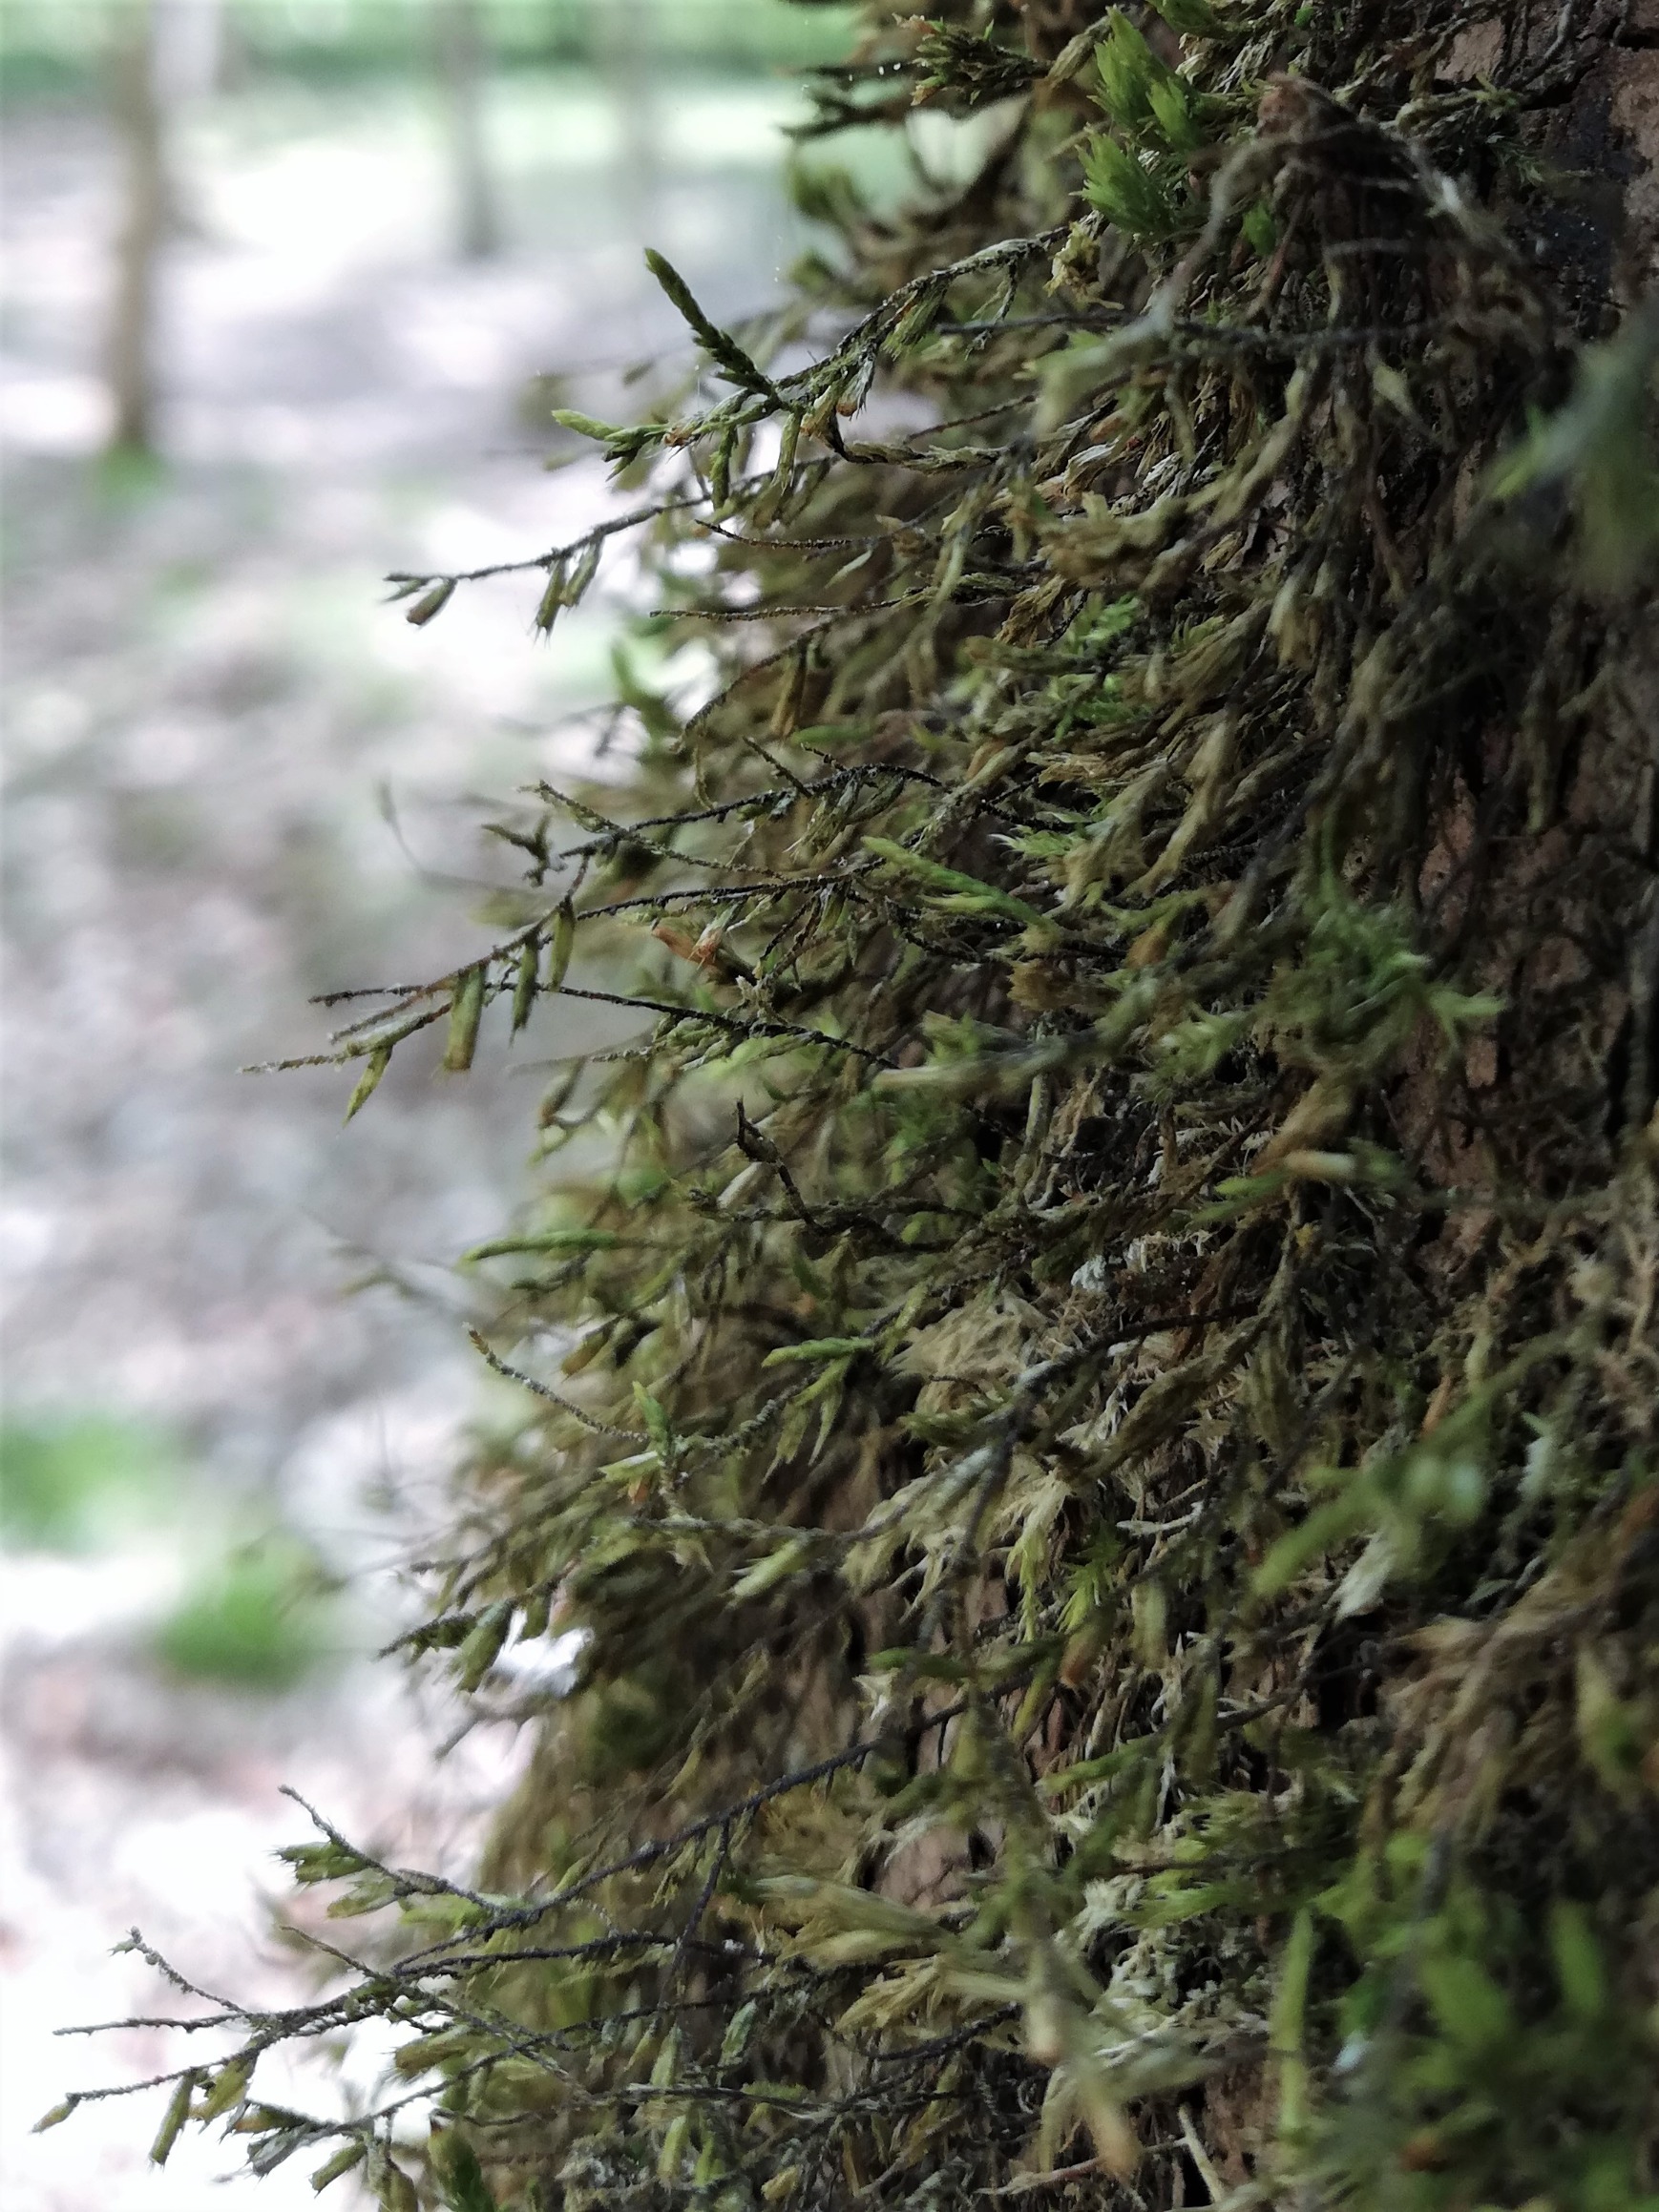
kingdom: Plantae
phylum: Bryophyta
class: Bryopsida
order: Hypnales
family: Cryphaeaceae
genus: Cryphaea
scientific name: Cryphaea heteromalla
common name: Bark-dækmos
